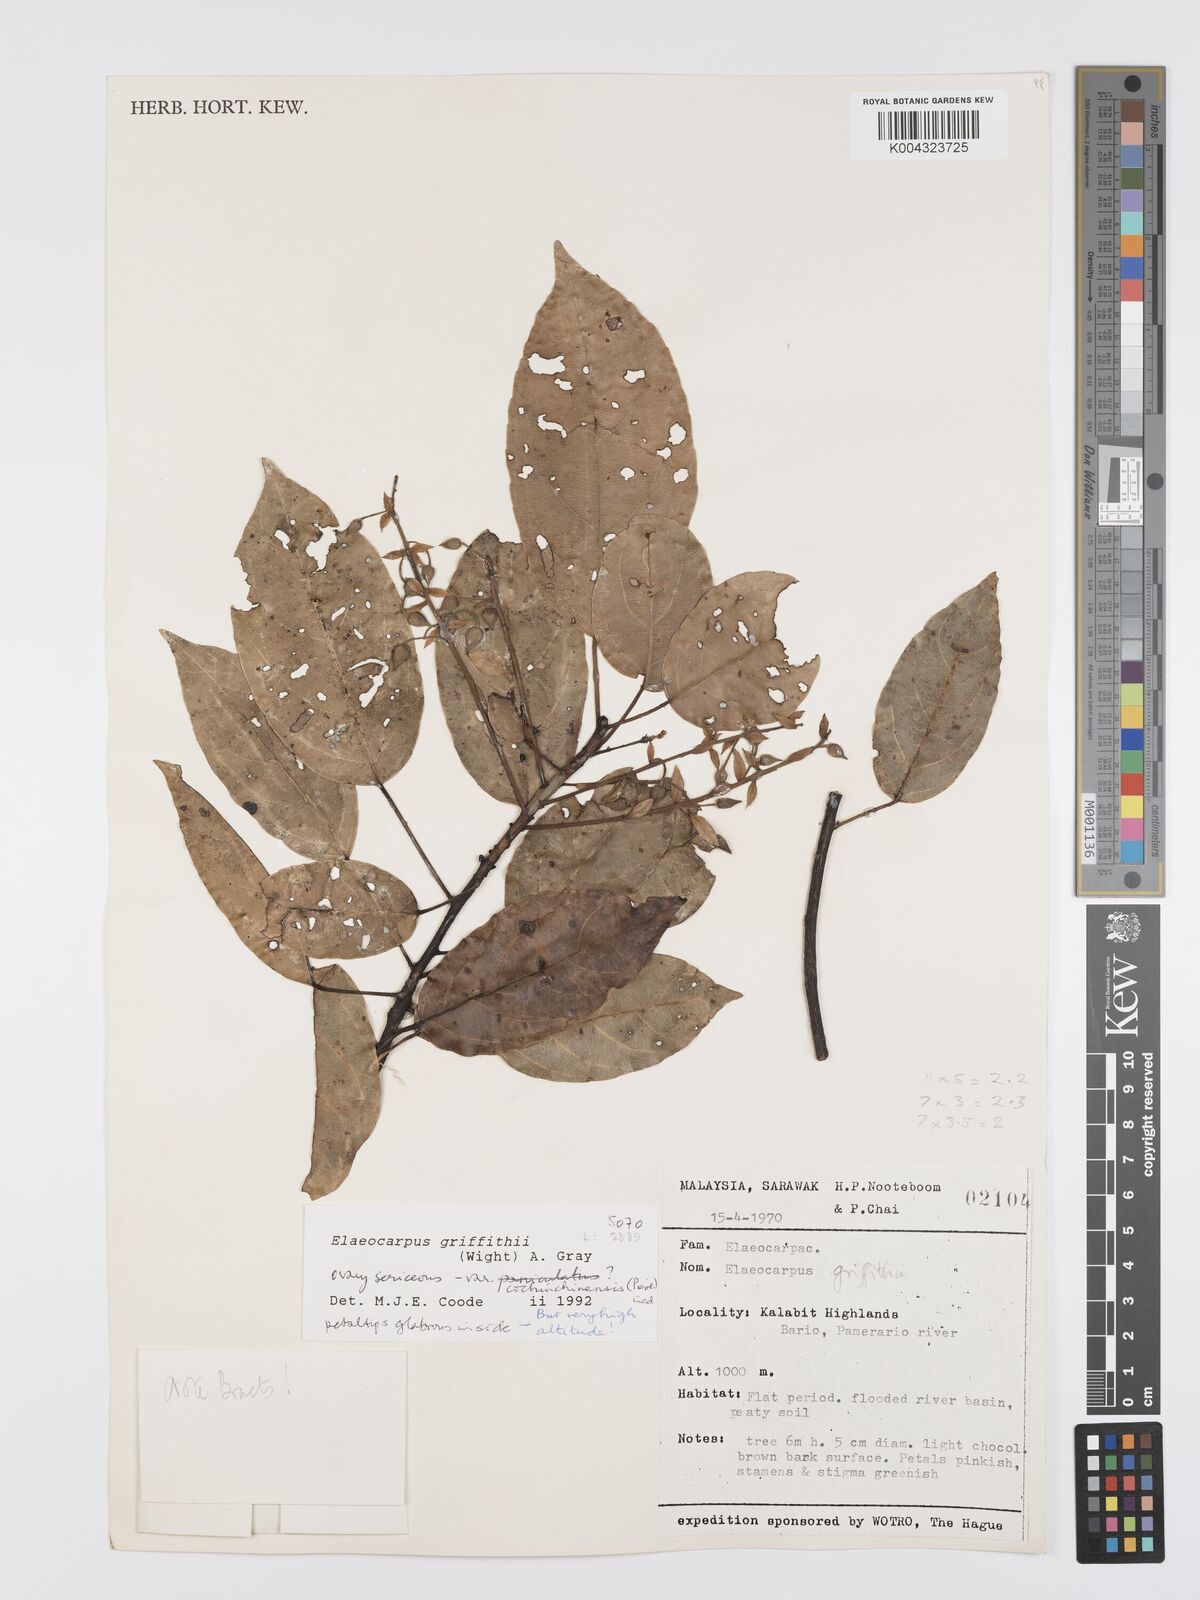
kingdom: Plantae
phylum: Tracheophyta
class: Magnoliopsida
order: Oxalidales
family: Elaeocarpaceae
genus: Elaeocarpus
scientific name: Elaeocarpus griffithii
